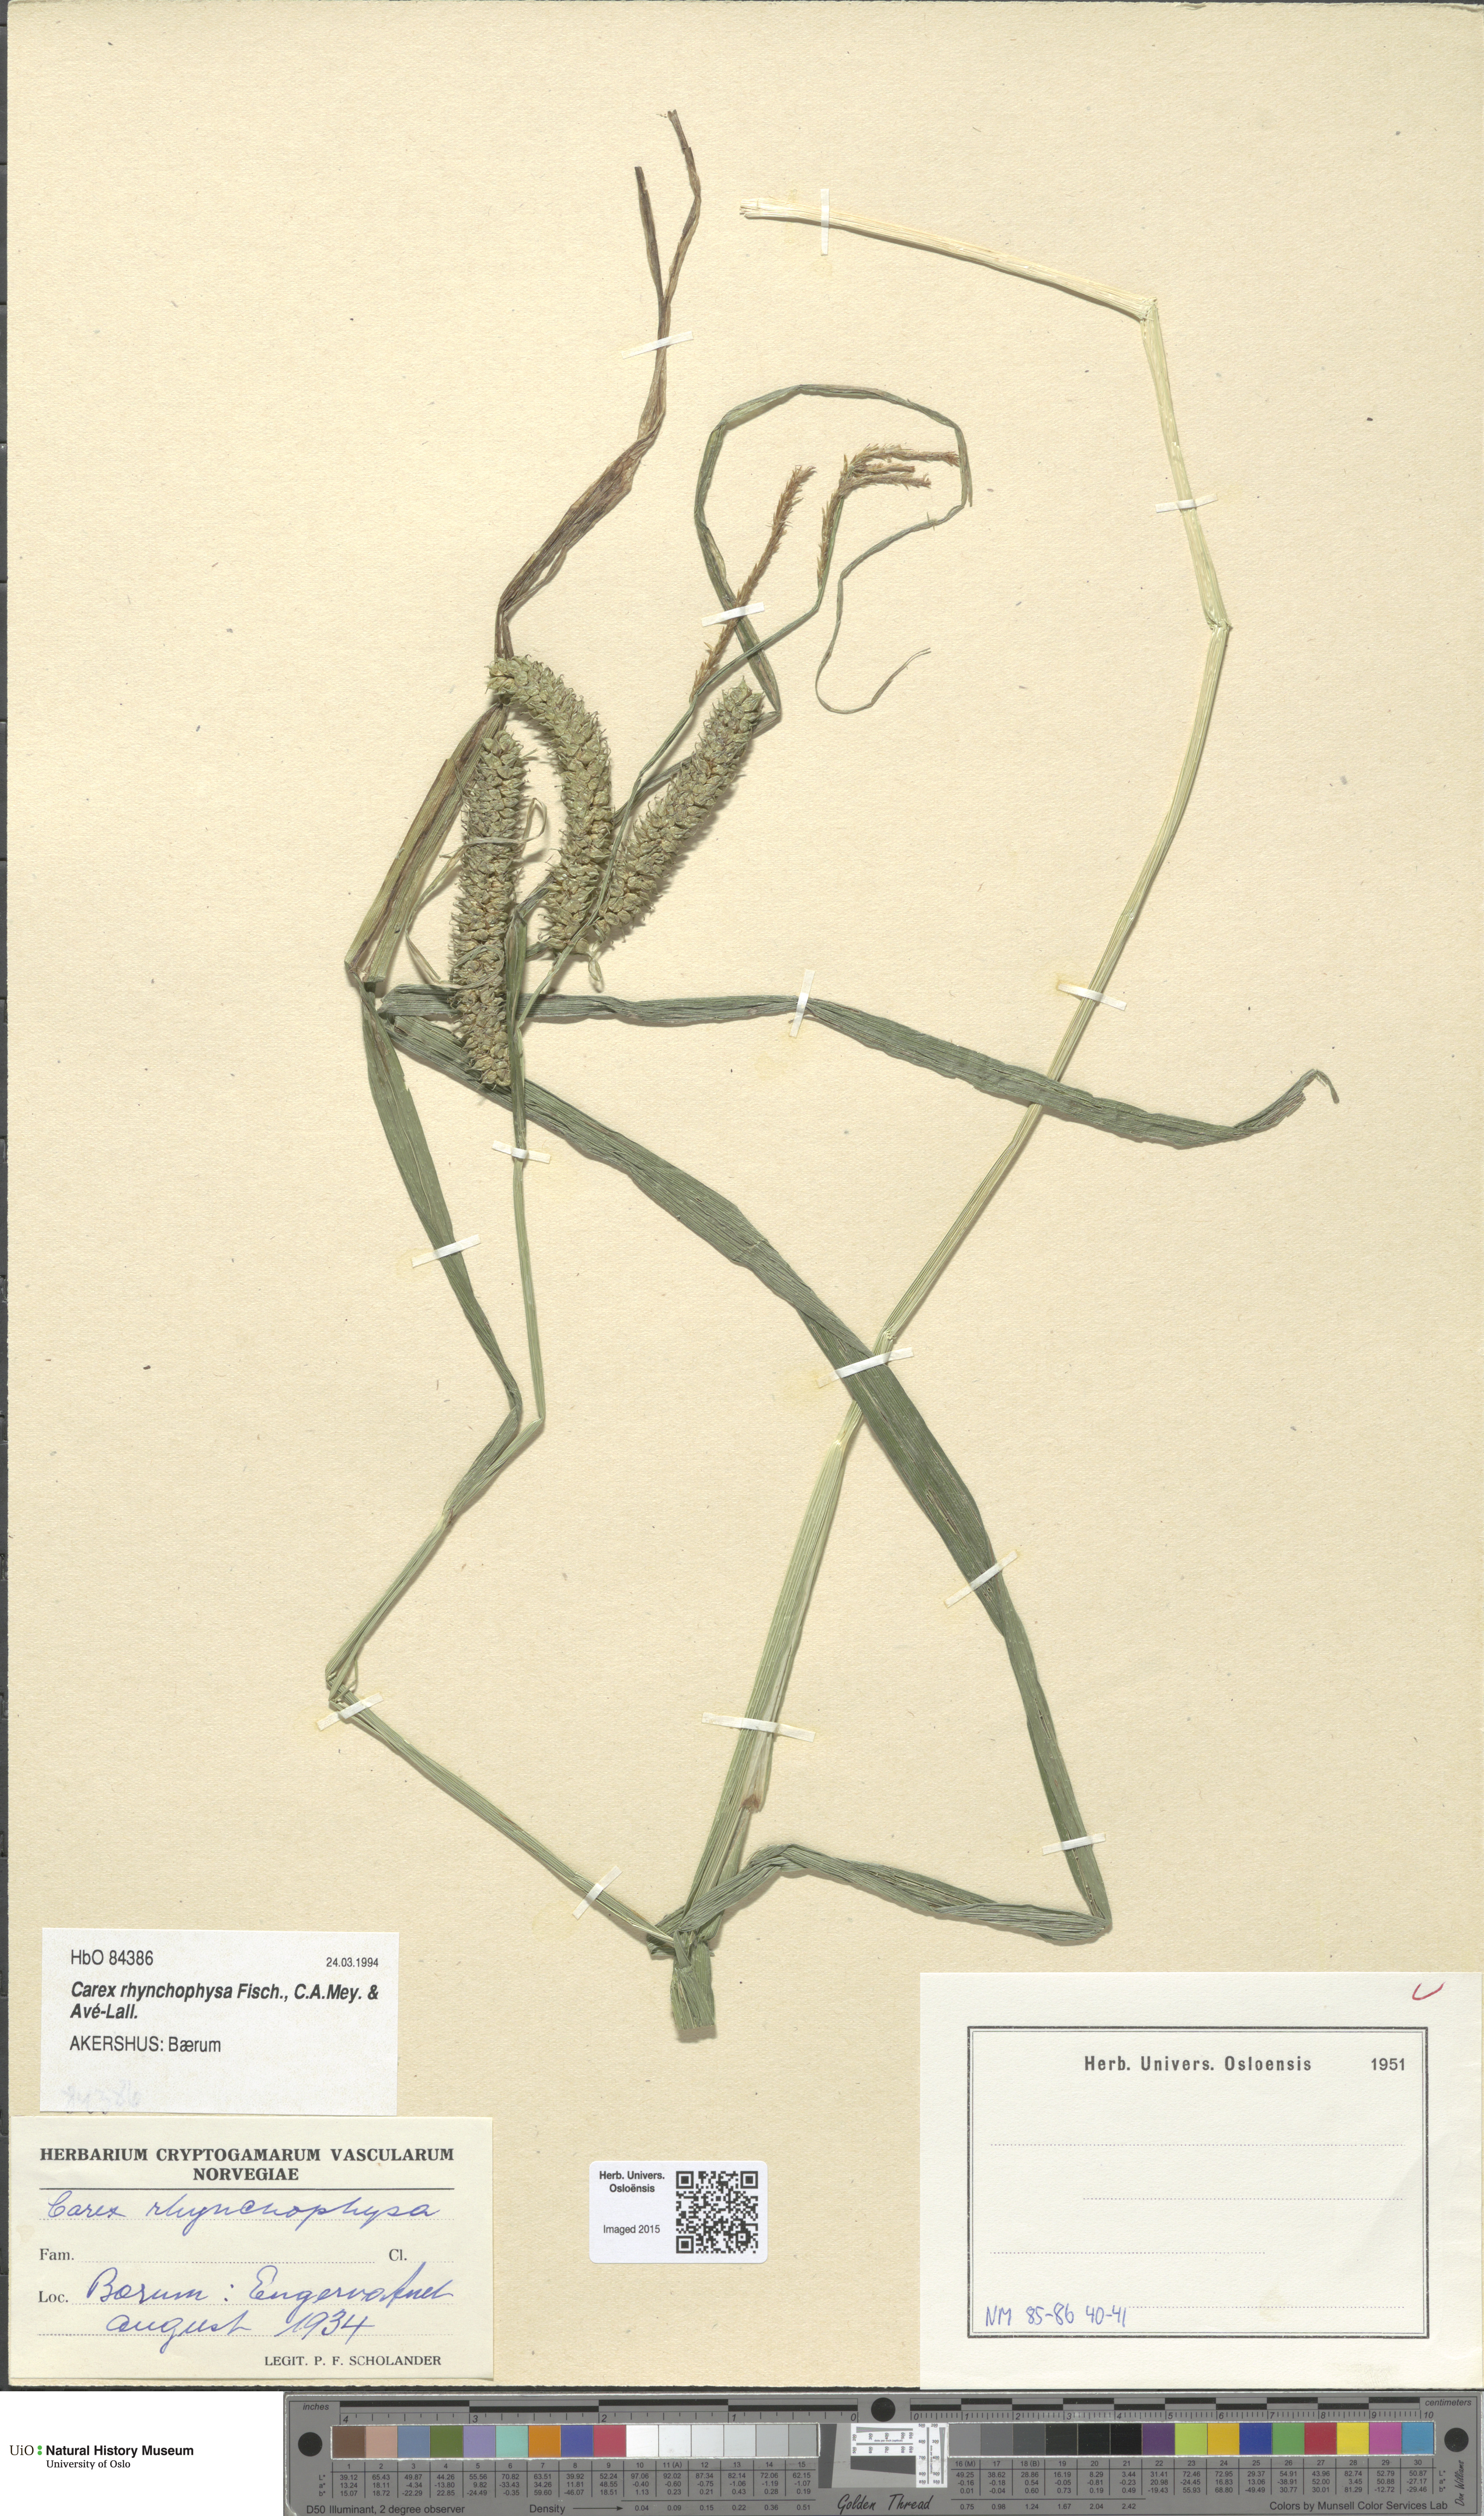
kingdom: Plantae
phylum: Tracheophyta
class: Liliopsida
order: Poales
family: Cyperaceae
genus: Carex
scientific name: Carex utriculata
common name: Beaked sedge
